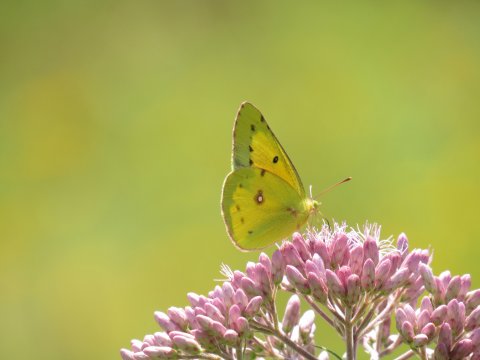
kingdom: Animalia
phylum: Arthropoda
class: Insecta
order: Lepidoptera
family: Pieridae
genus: Colias
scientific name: Colias eurytheme
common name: Orange Sulphur
